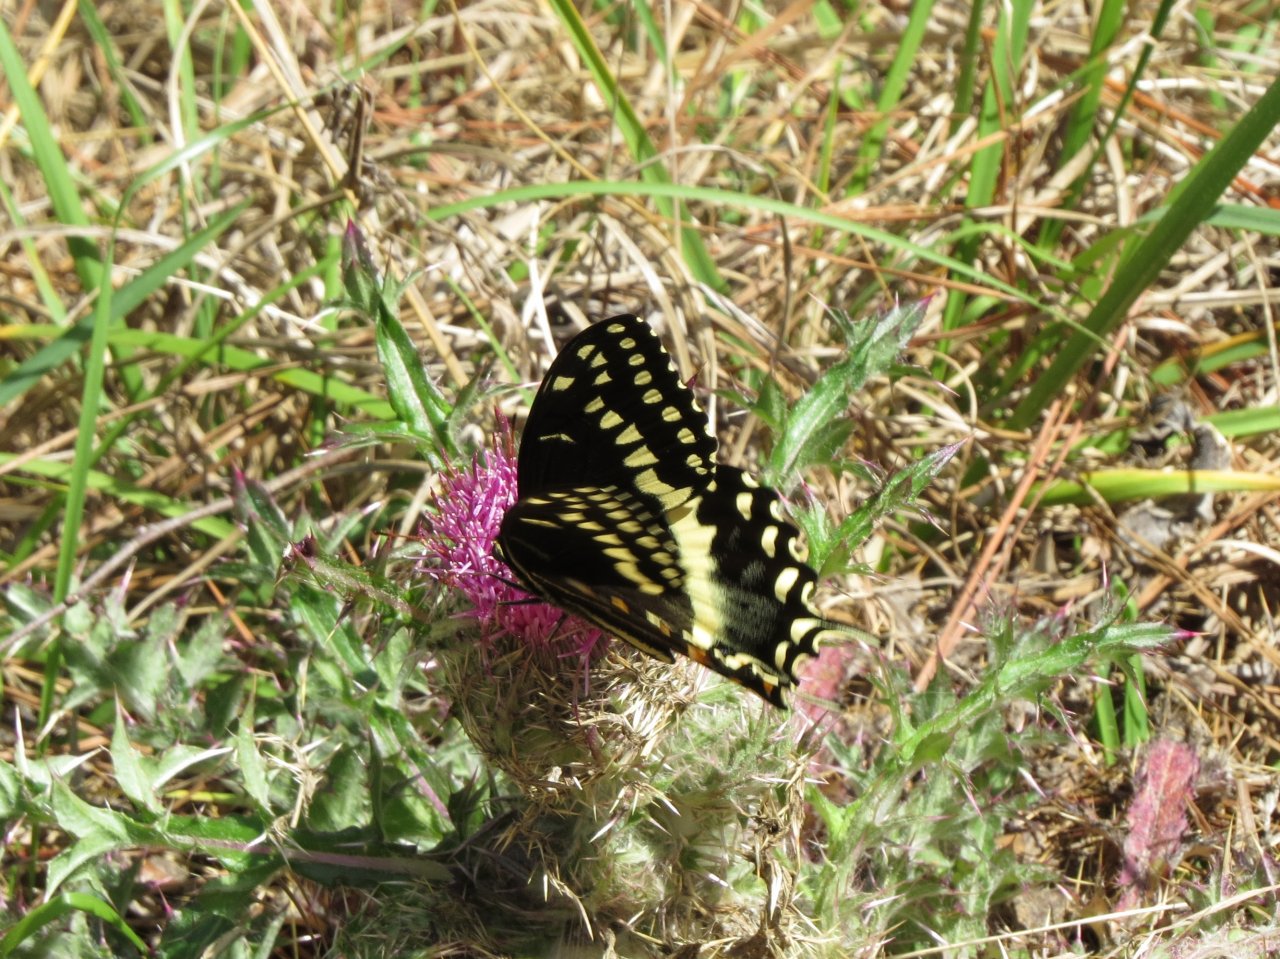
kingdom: Animalia
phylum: Arthropoda
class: Insecta
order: Lepidoptera
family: Papilionidae
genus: Pterourus
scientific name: Pterourus palamedes
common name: Palamedes Swallowtail
